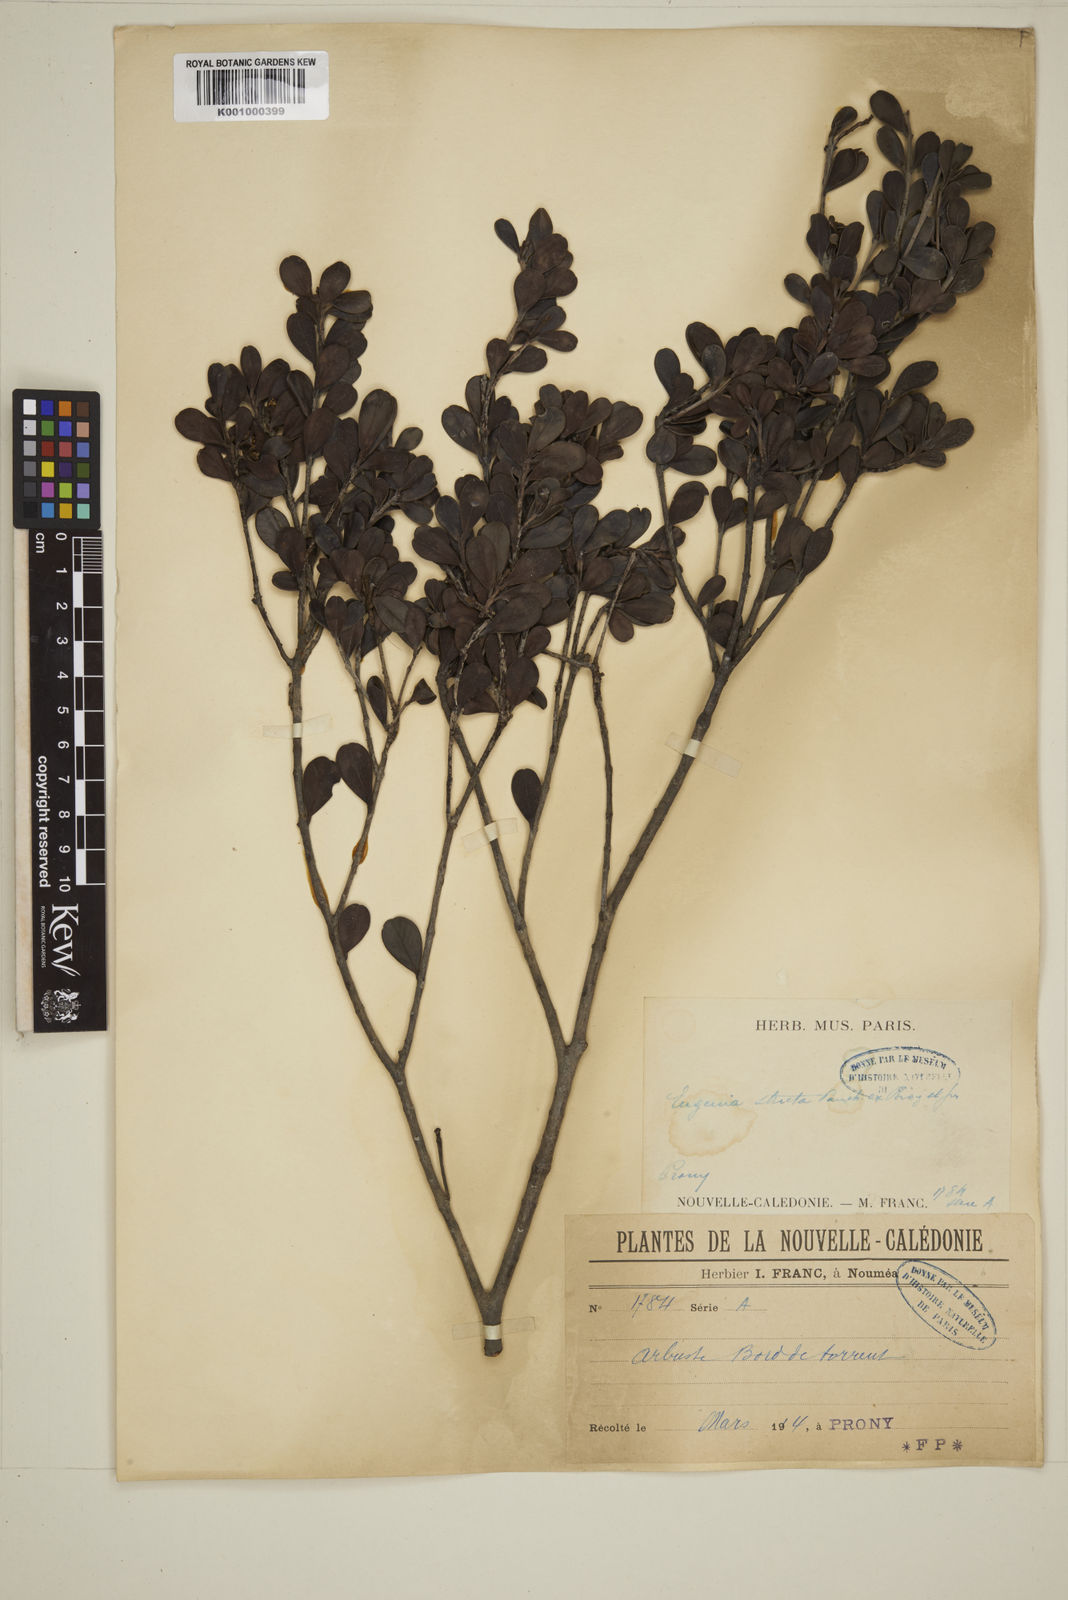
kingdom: Plantae
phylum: Tracheophyta
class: Magnoliopsida
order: Myrtales
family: Myrtaceae
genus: Austromyrtus
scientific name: Austromyrtus stricta
